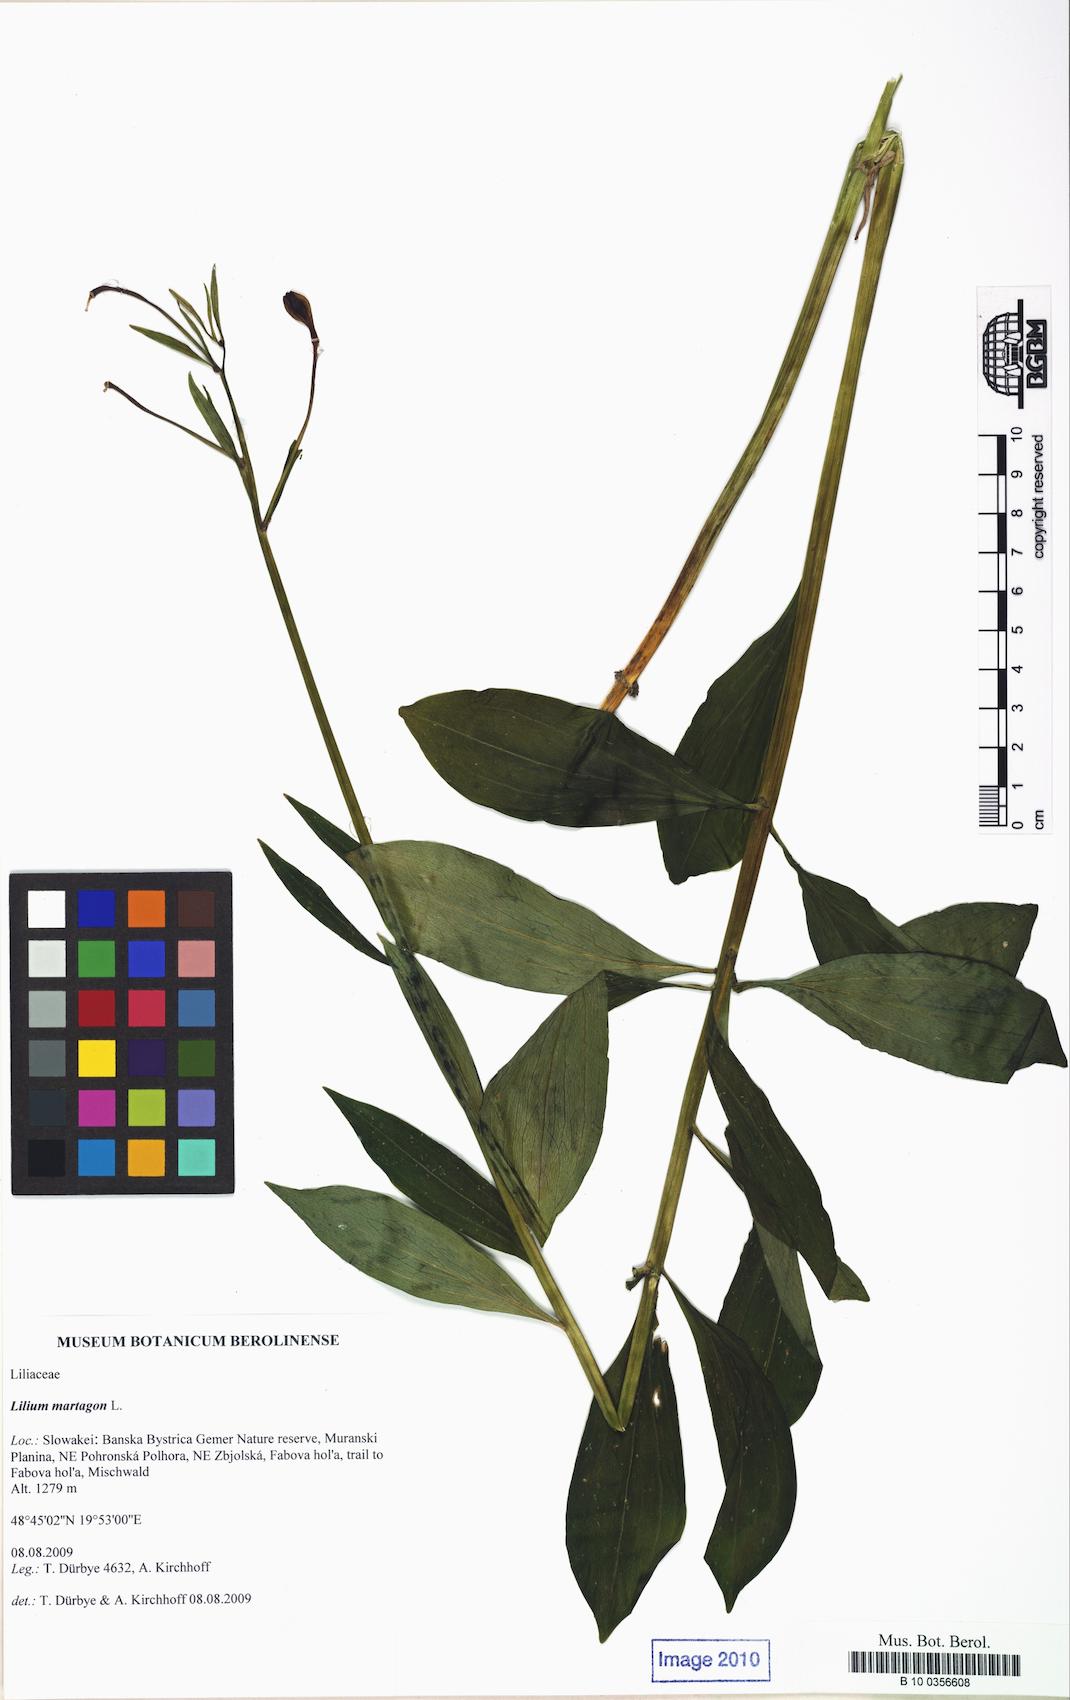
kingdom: Plantae
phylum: Tracheophyta
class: Liliopsida
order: Liliales
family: Liliaceae
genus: Lilium
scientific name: Lilium martagon
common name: Martagon lily
